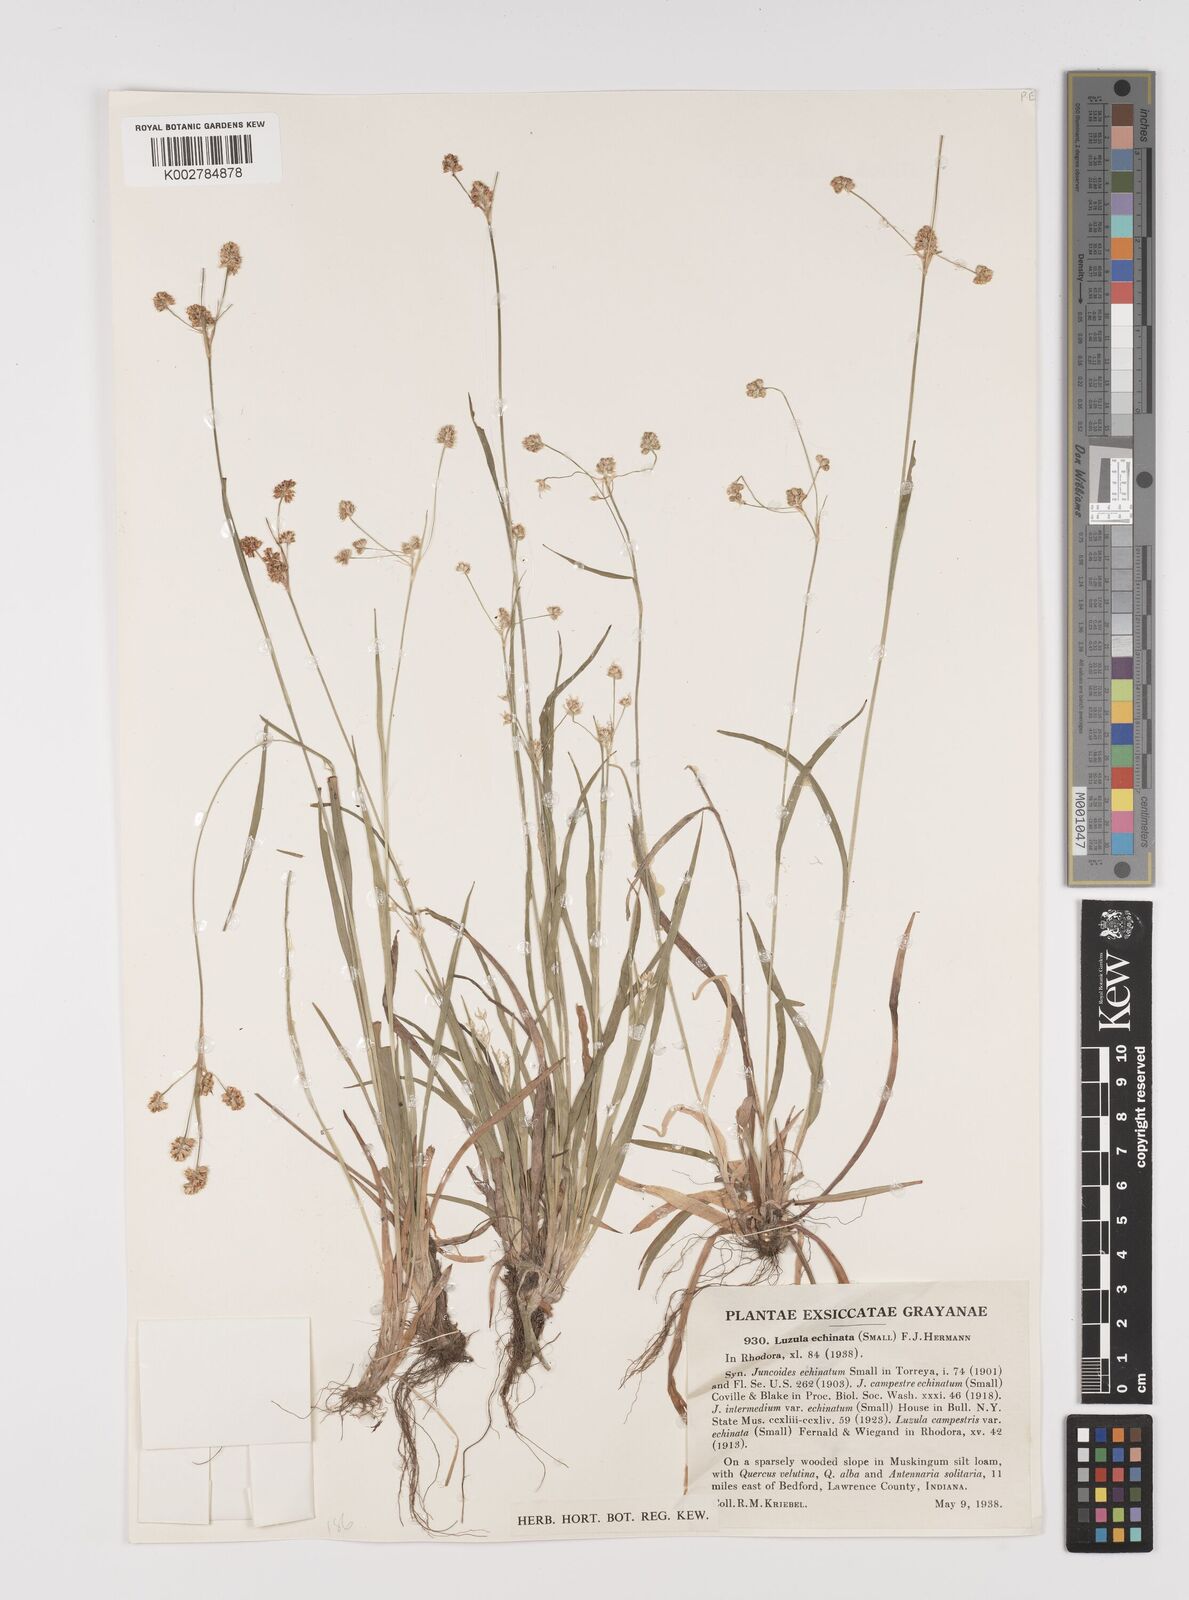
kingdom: Plantae
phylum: Tracheophyta
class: Liliopsida
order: Poales
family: Juncaceae
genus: Luzula
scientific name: Luzula echinata
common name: Hedgehog woodrush
